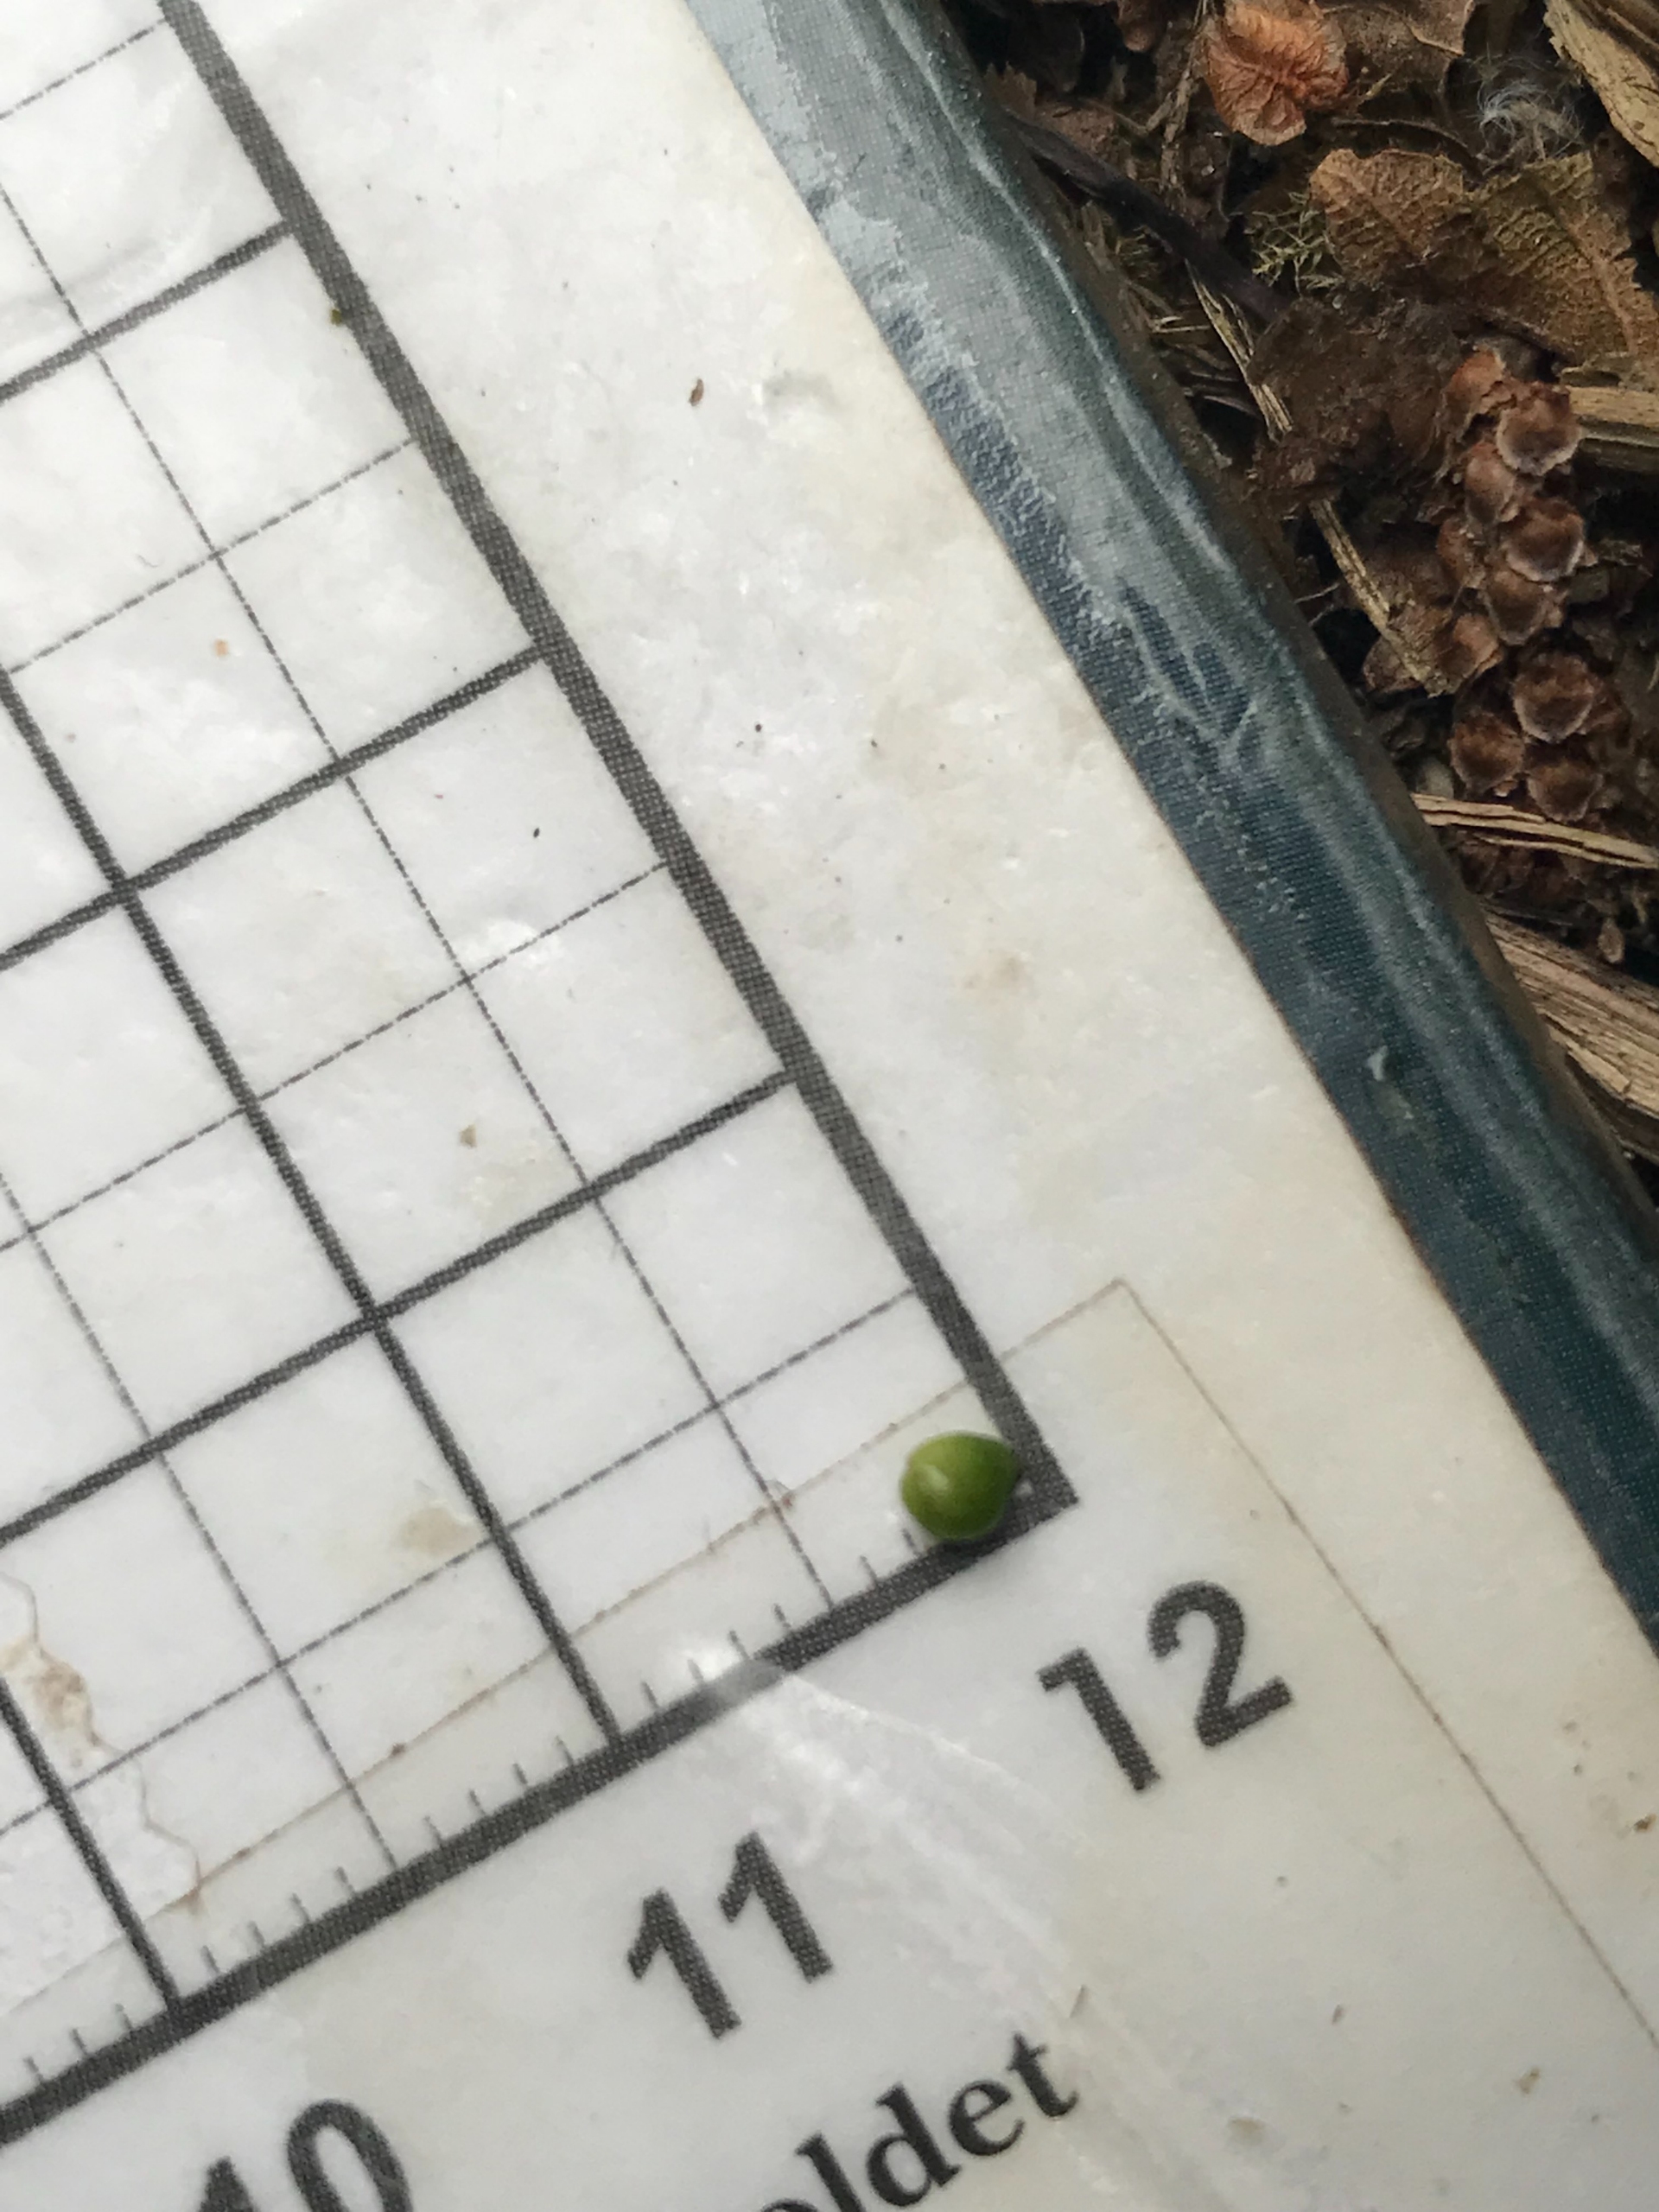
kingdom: Plantae
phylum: Tracheophyta
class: Liliopsida
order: Alismatales
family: Potamogetonaceae
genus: Potamogeton
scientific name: Potamogeton polygonifolius
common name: Aflangbladet vandaks
